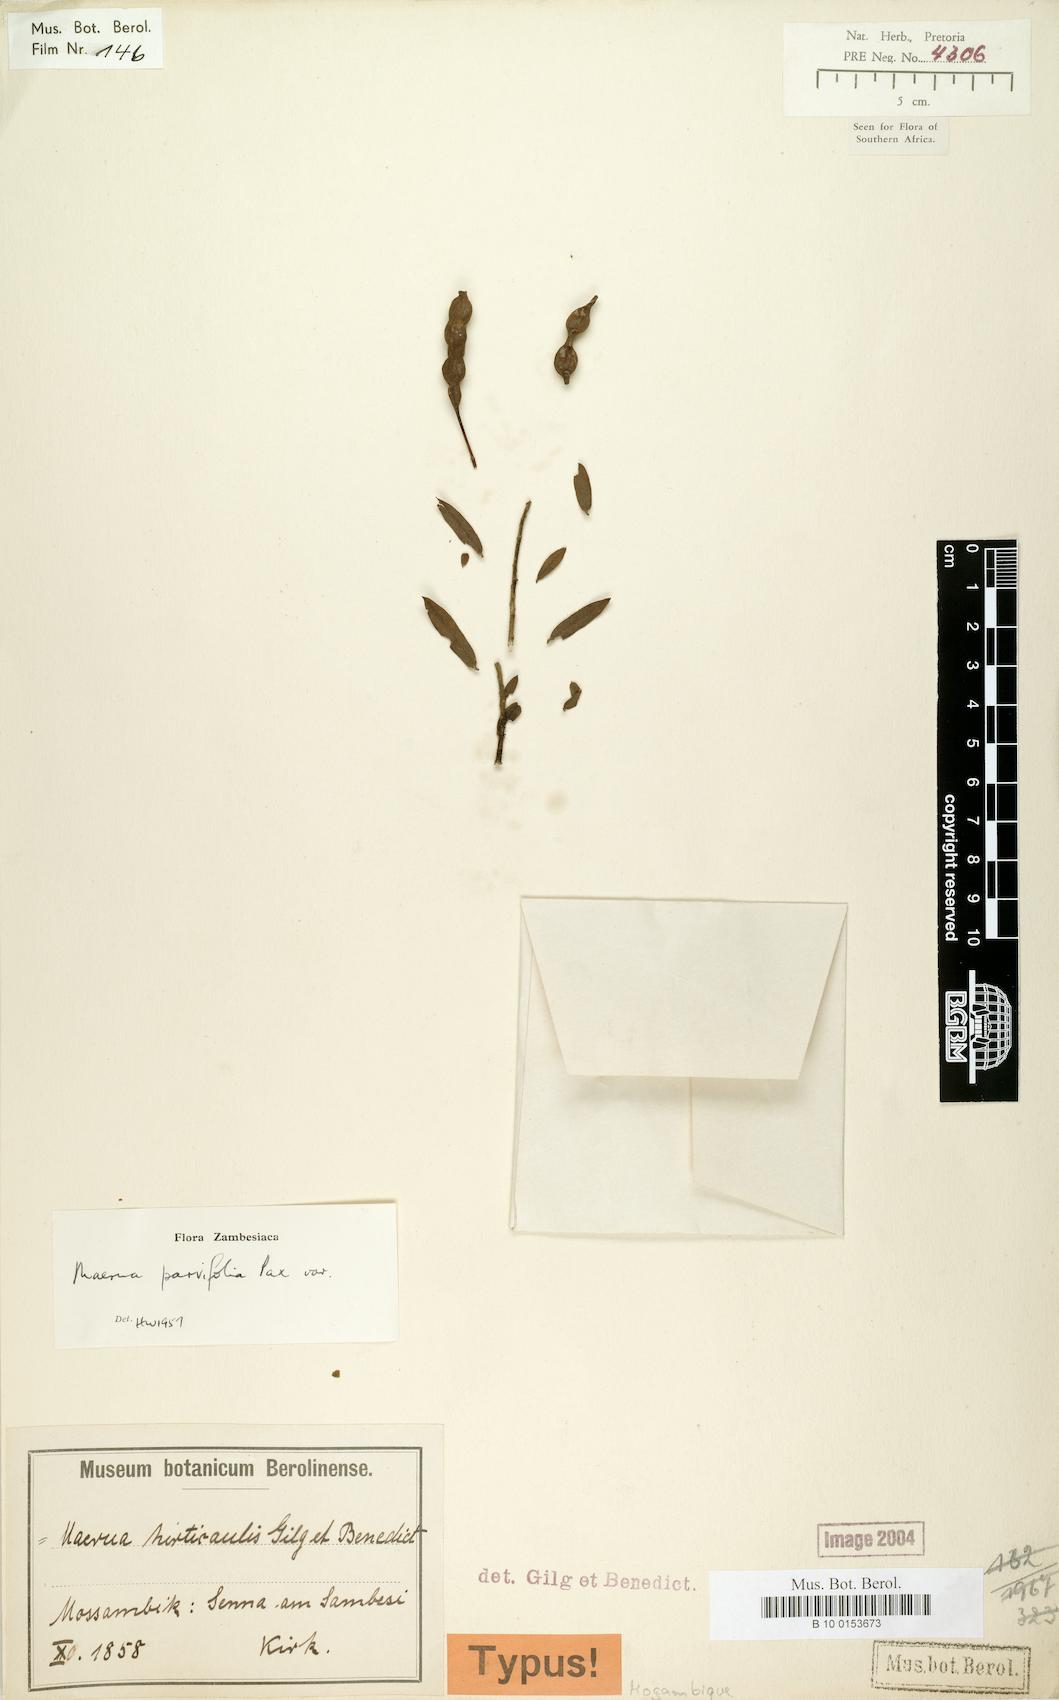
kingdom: Plantae
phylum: Tracheophyta
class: Magnoliopsida
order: Brassicales
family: Capparaceae
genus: Maerua
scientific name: Maerua parvifolia
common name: Dwarf bush-cherry
